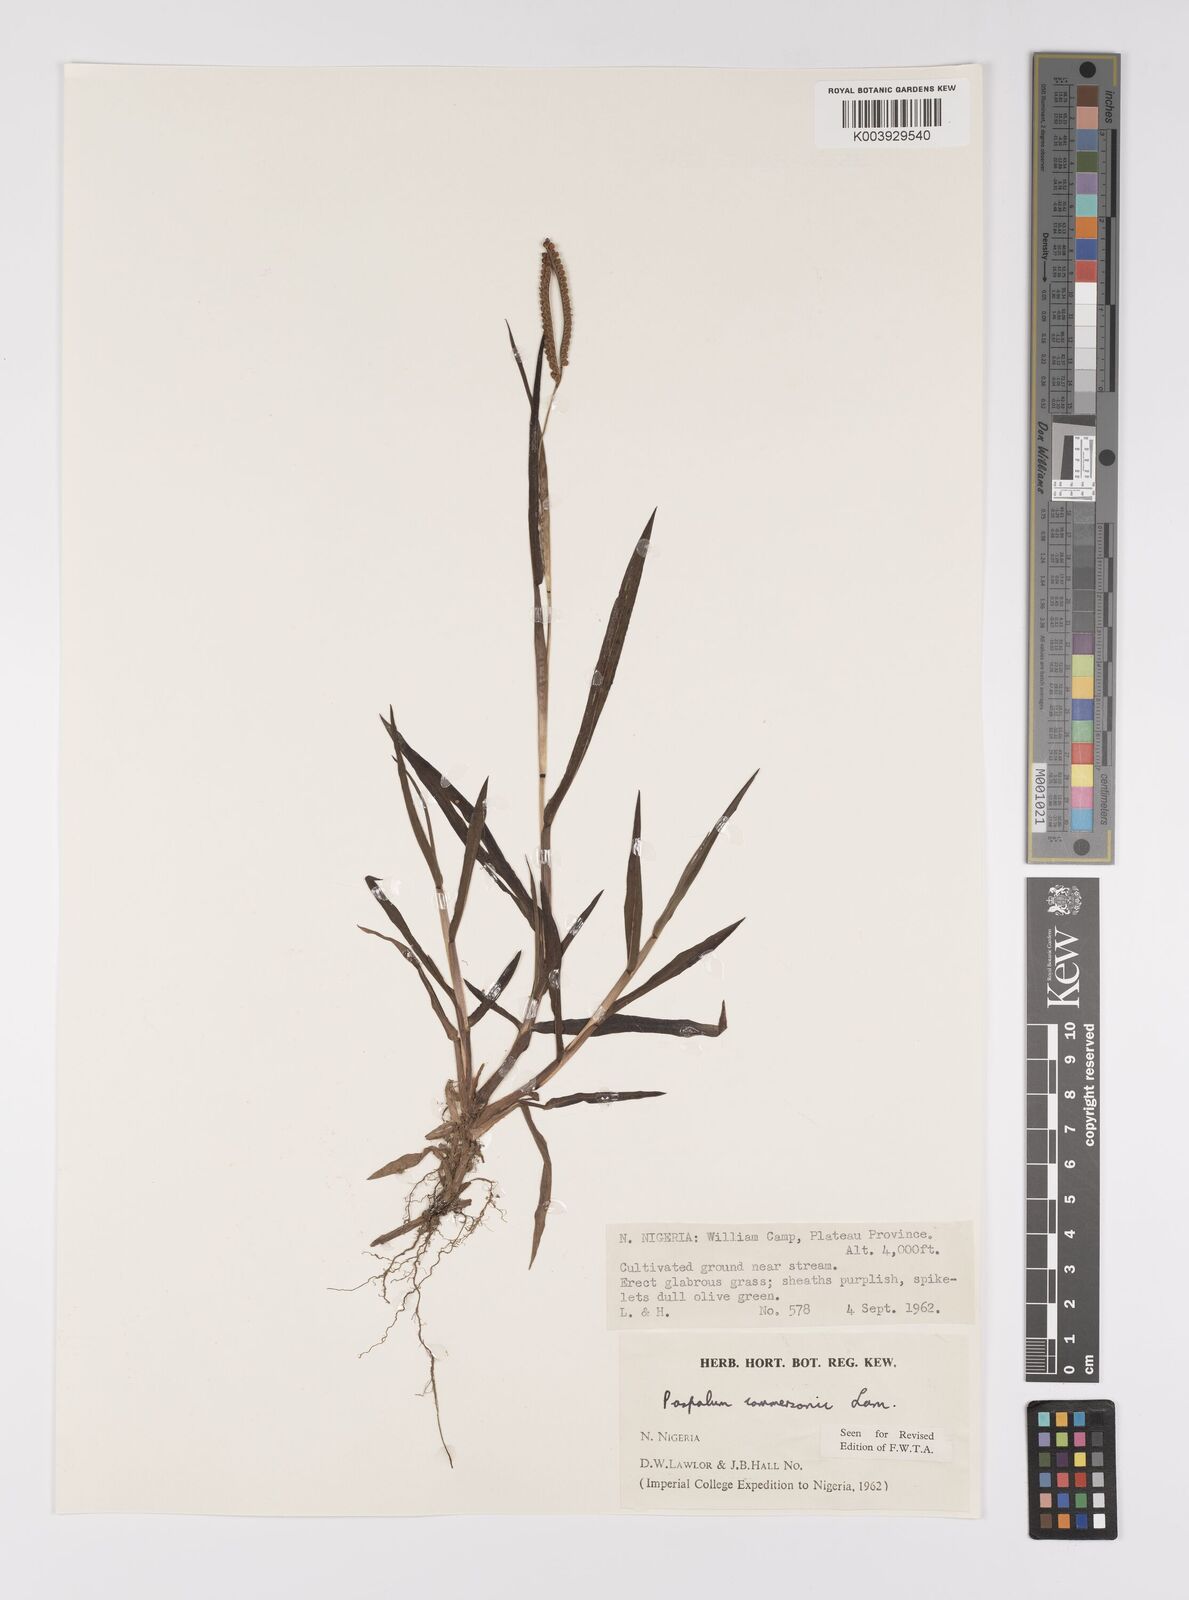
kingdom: Plantae
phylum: Tracheophyta
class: Liliopsida
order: Poales
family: Poaceae
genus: Paspalum
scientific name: Paspalum scrobiculatum
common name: Kodo millet
